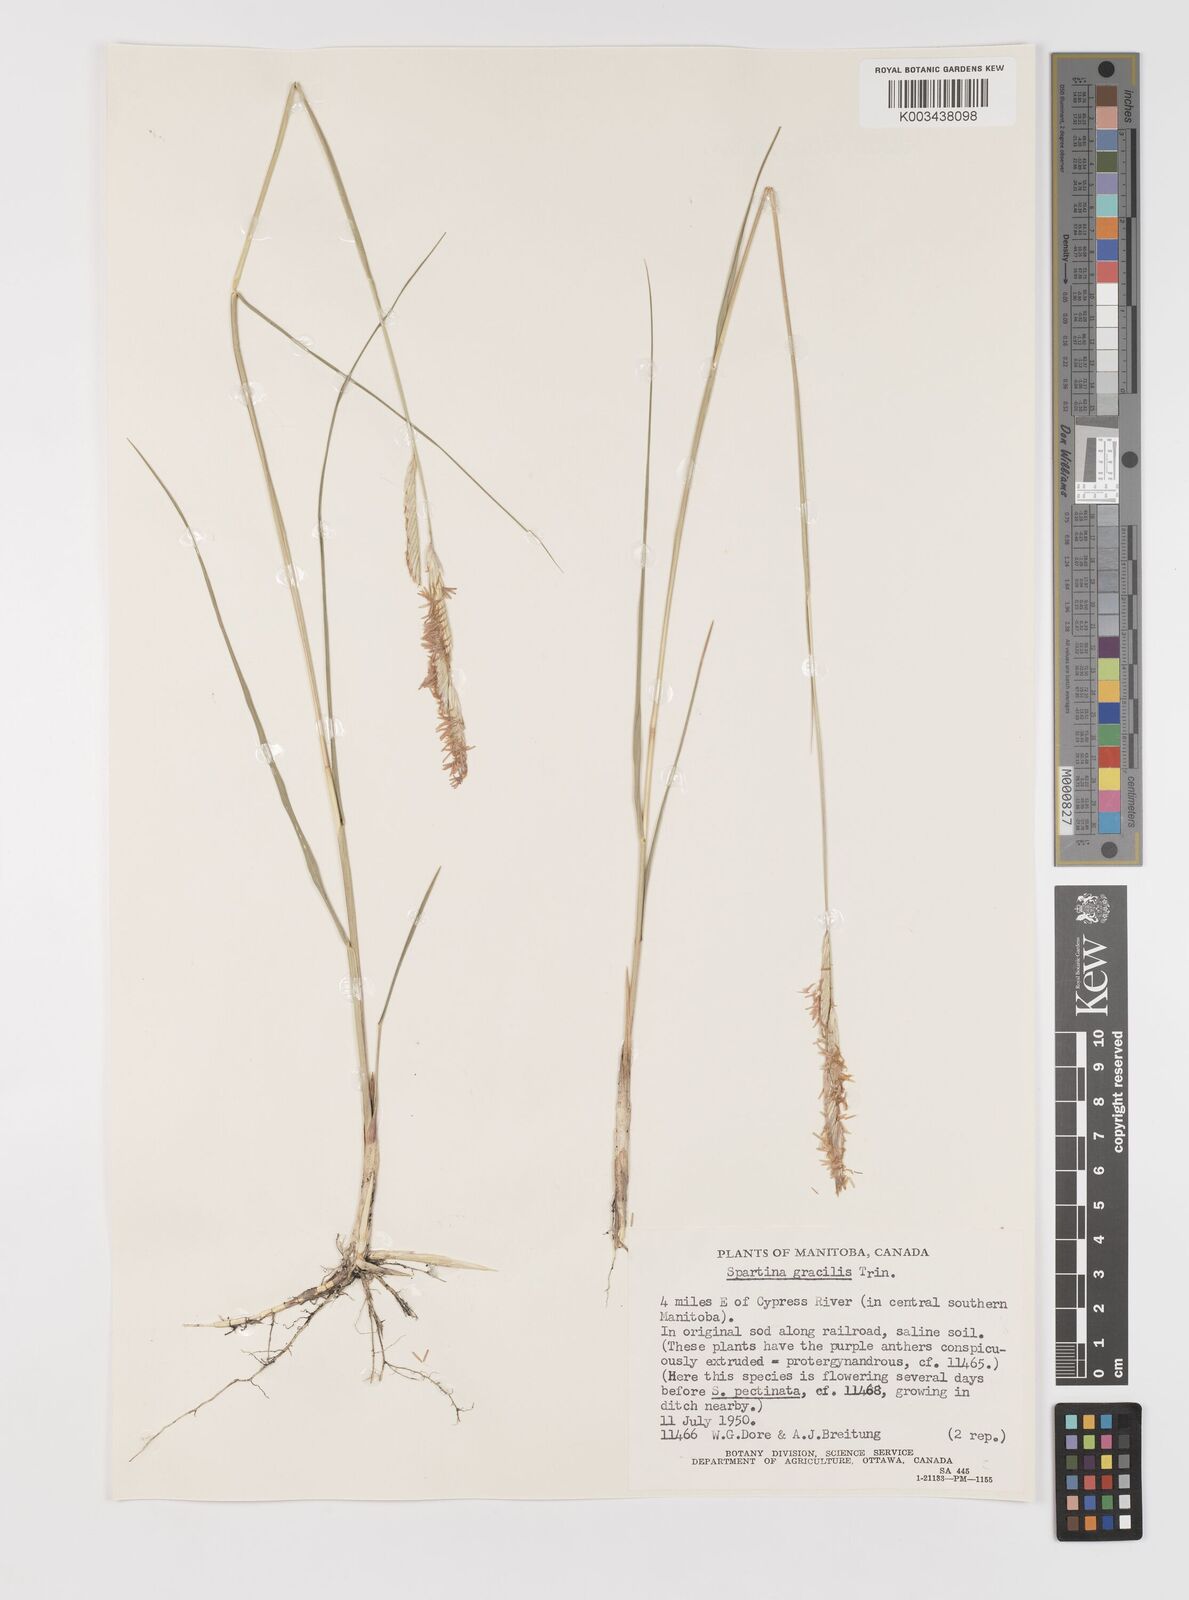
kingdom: Plantae
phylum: Tracheophyta
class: Liliopsida
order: Poales
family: Poaceae
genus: Sporobolus
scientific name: Sporobolus hookerianus
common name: Alkali cordgrass
